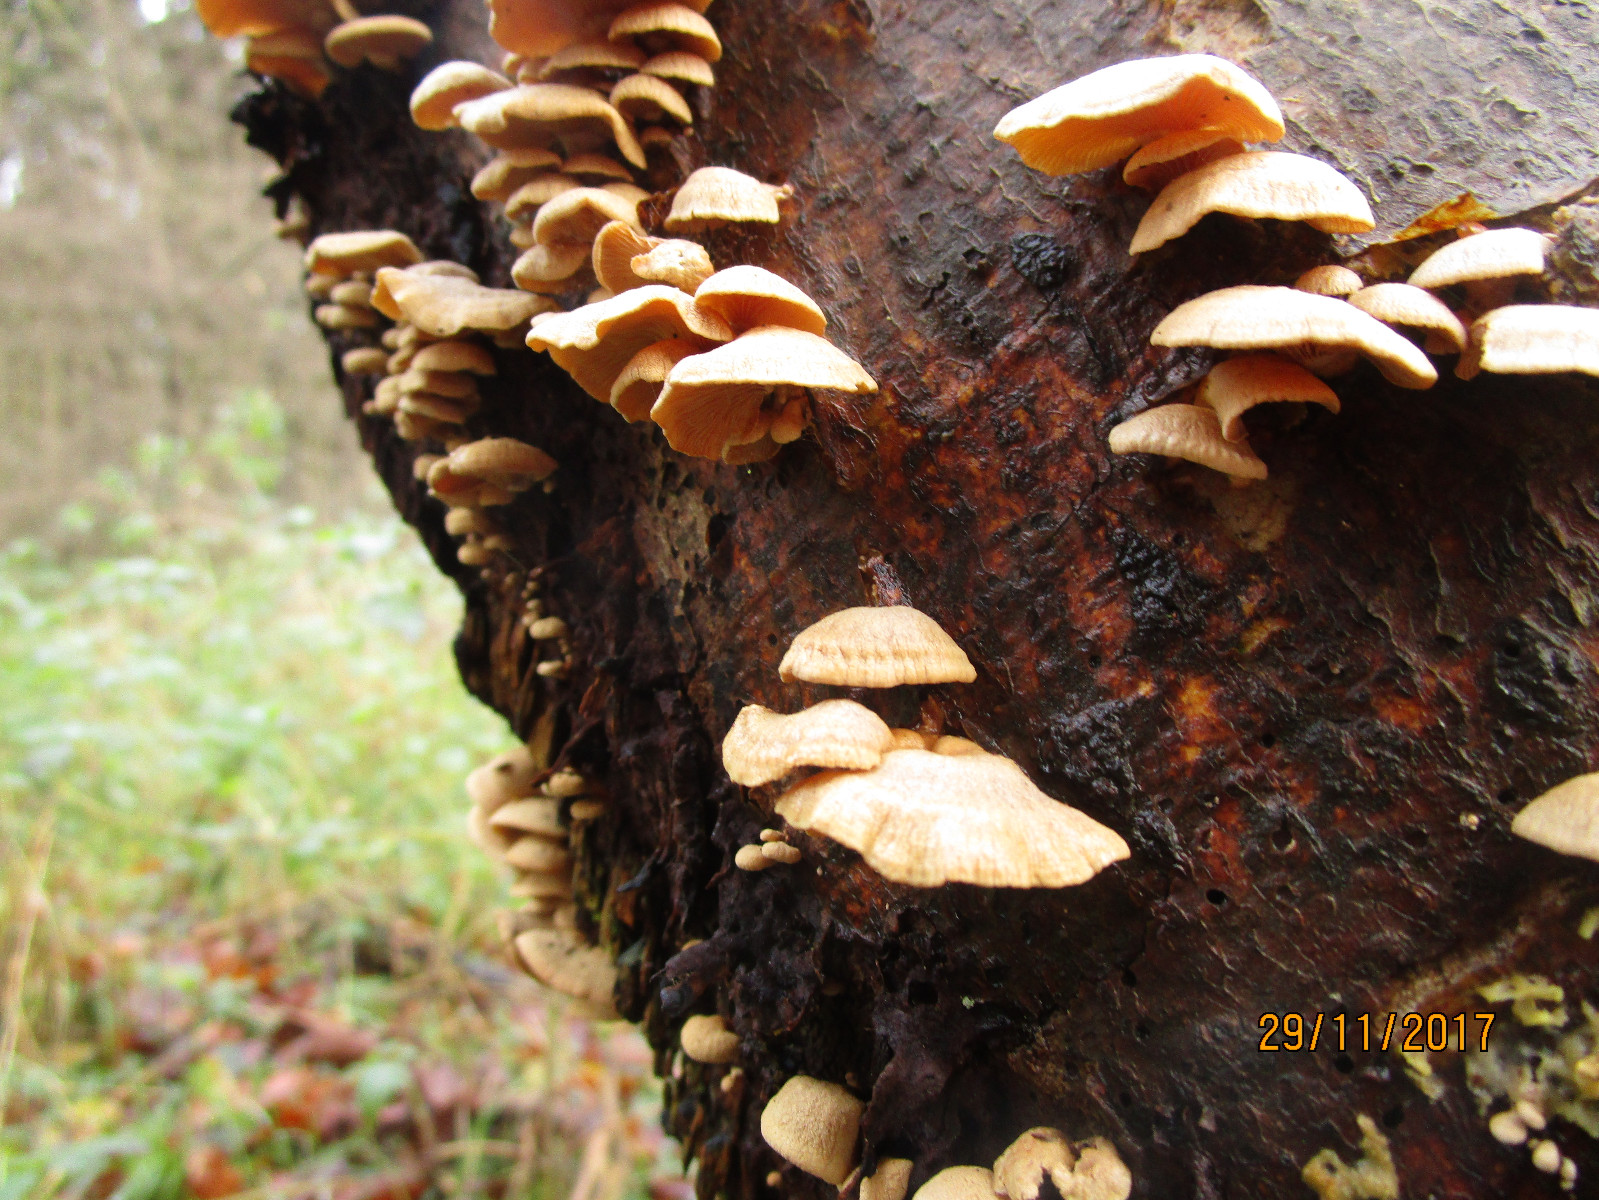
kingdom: Fungi
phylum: Basidiomycota
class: Agaricomycetes
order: Agaricales
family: Mycenaceae
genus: Panellus
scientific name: Panellus stipticus
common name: kliddet epaulethat
